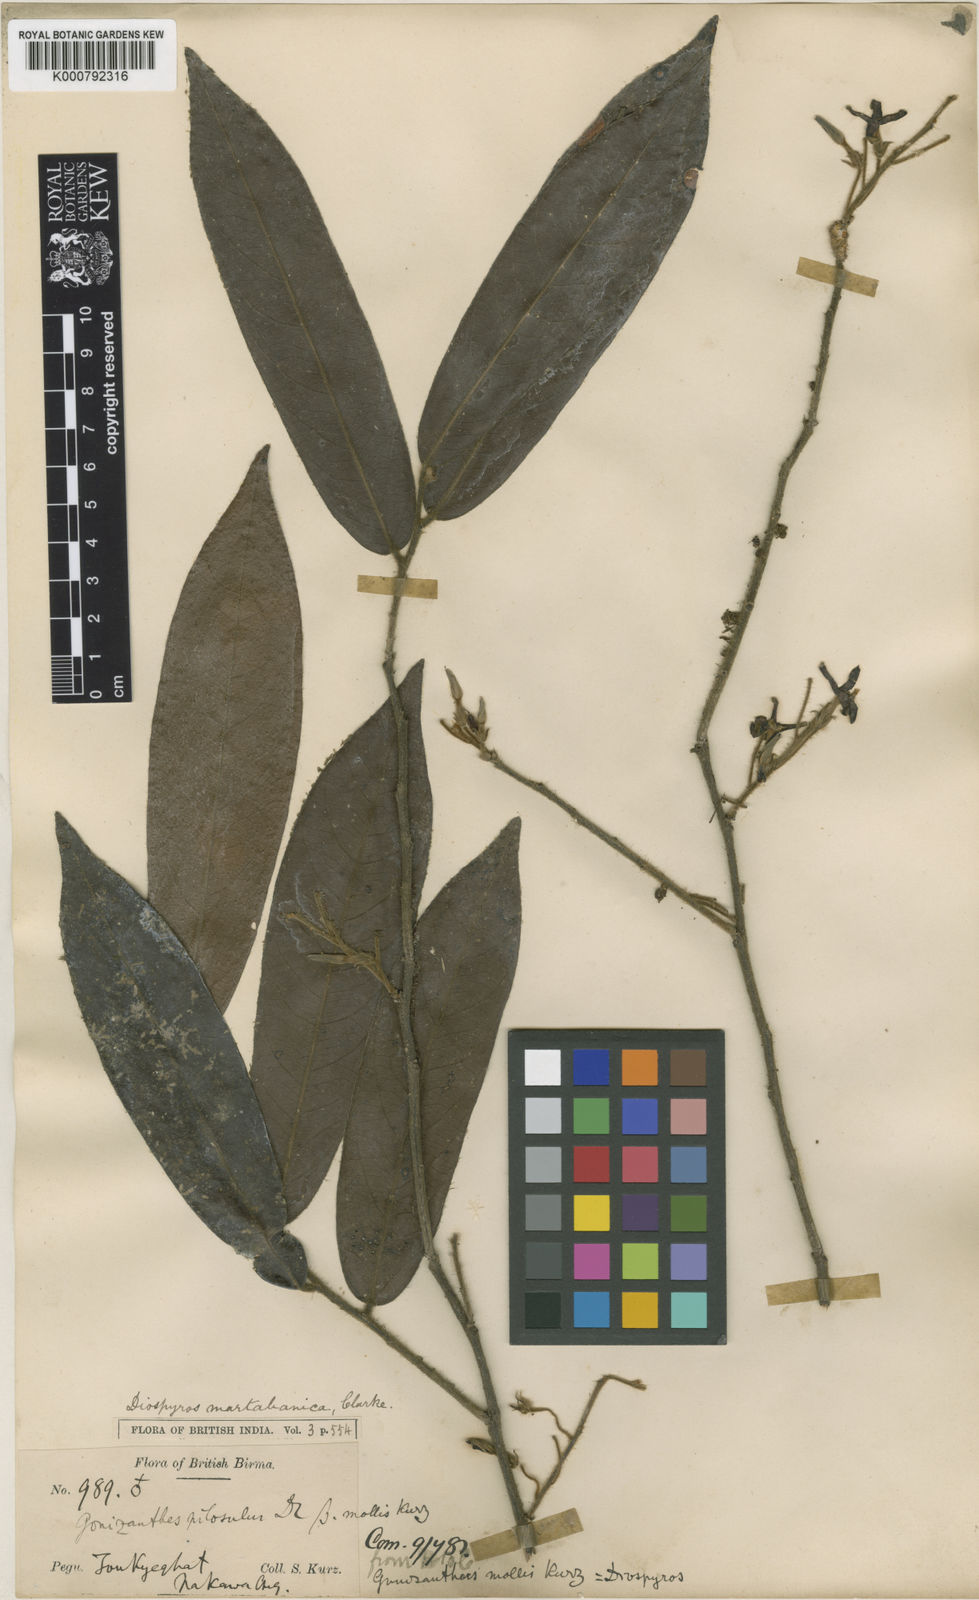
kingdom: Plantae
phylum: Tracheophyta
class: Magnoliopsida
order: Ericales
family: Ebenaceae
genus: Diospyros
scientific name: Diospyros martabanica
